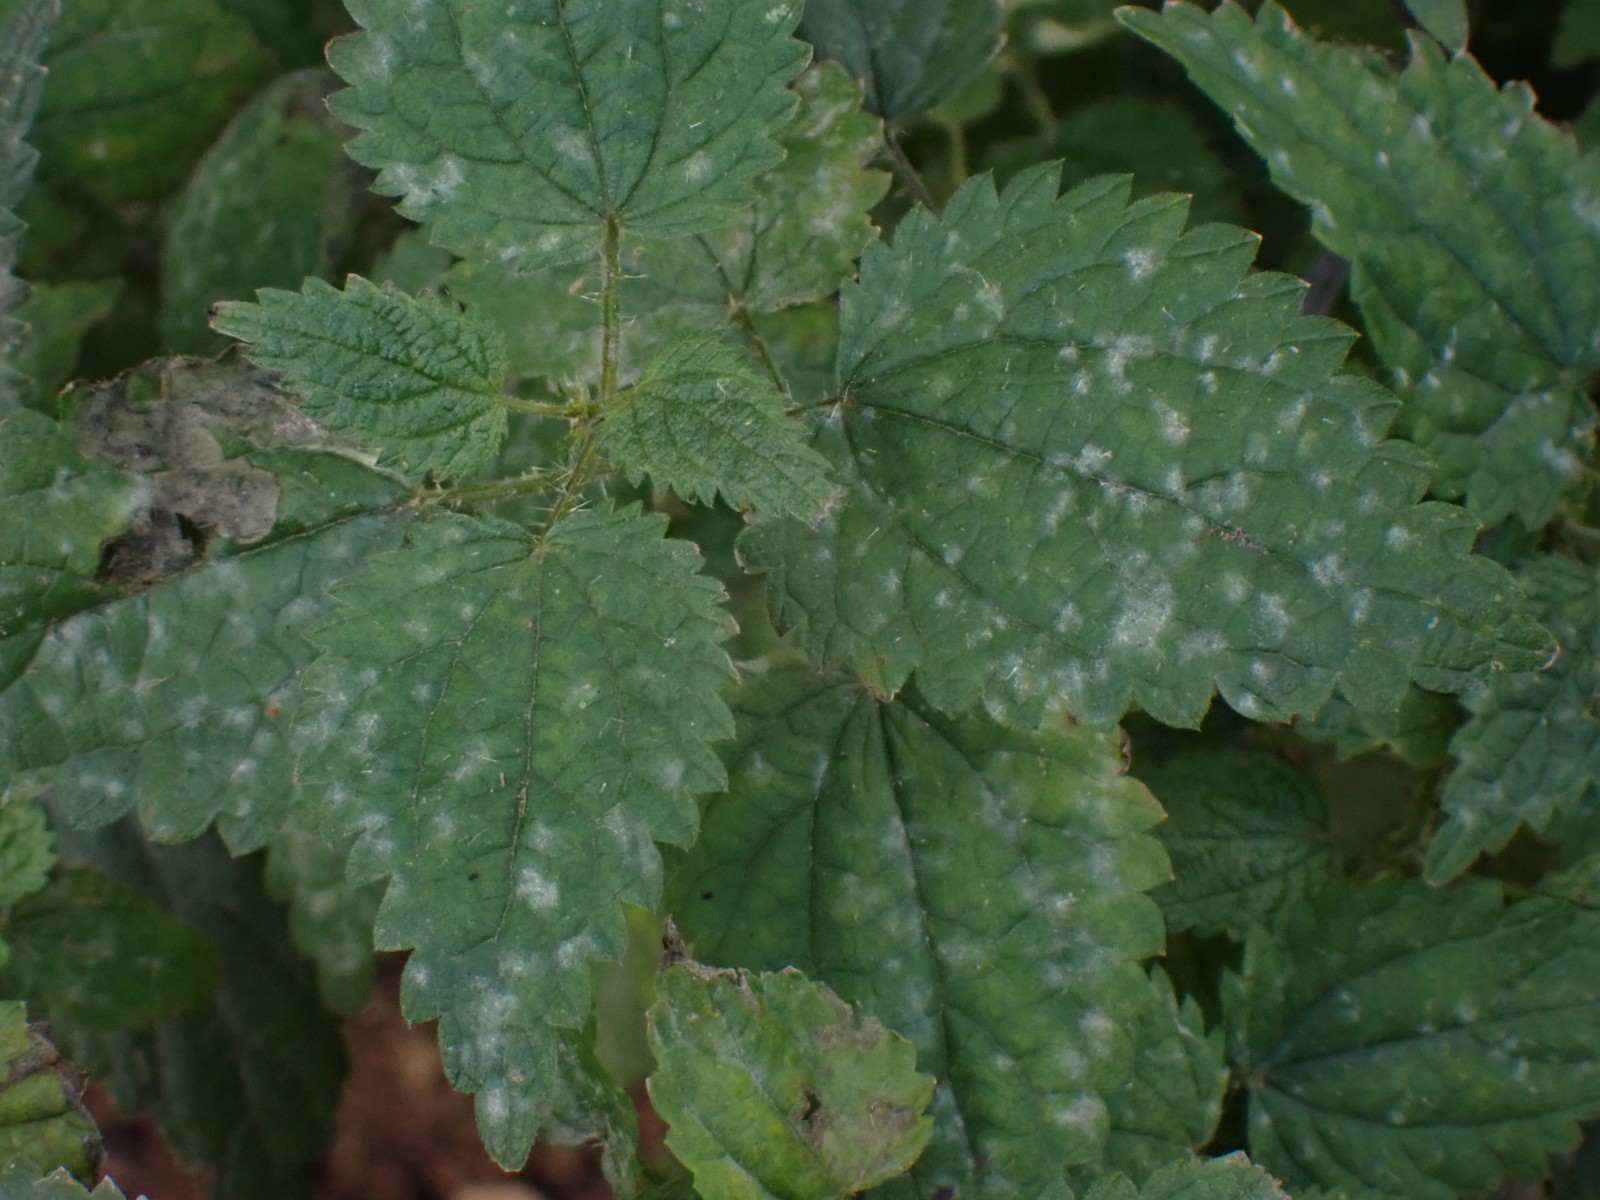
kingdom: Fungi
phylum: Ascomycota
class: Leotiomycetes
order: Helotiales
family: Erysiphaceae
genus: Erysiphe
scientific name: Erysiphe urticae
